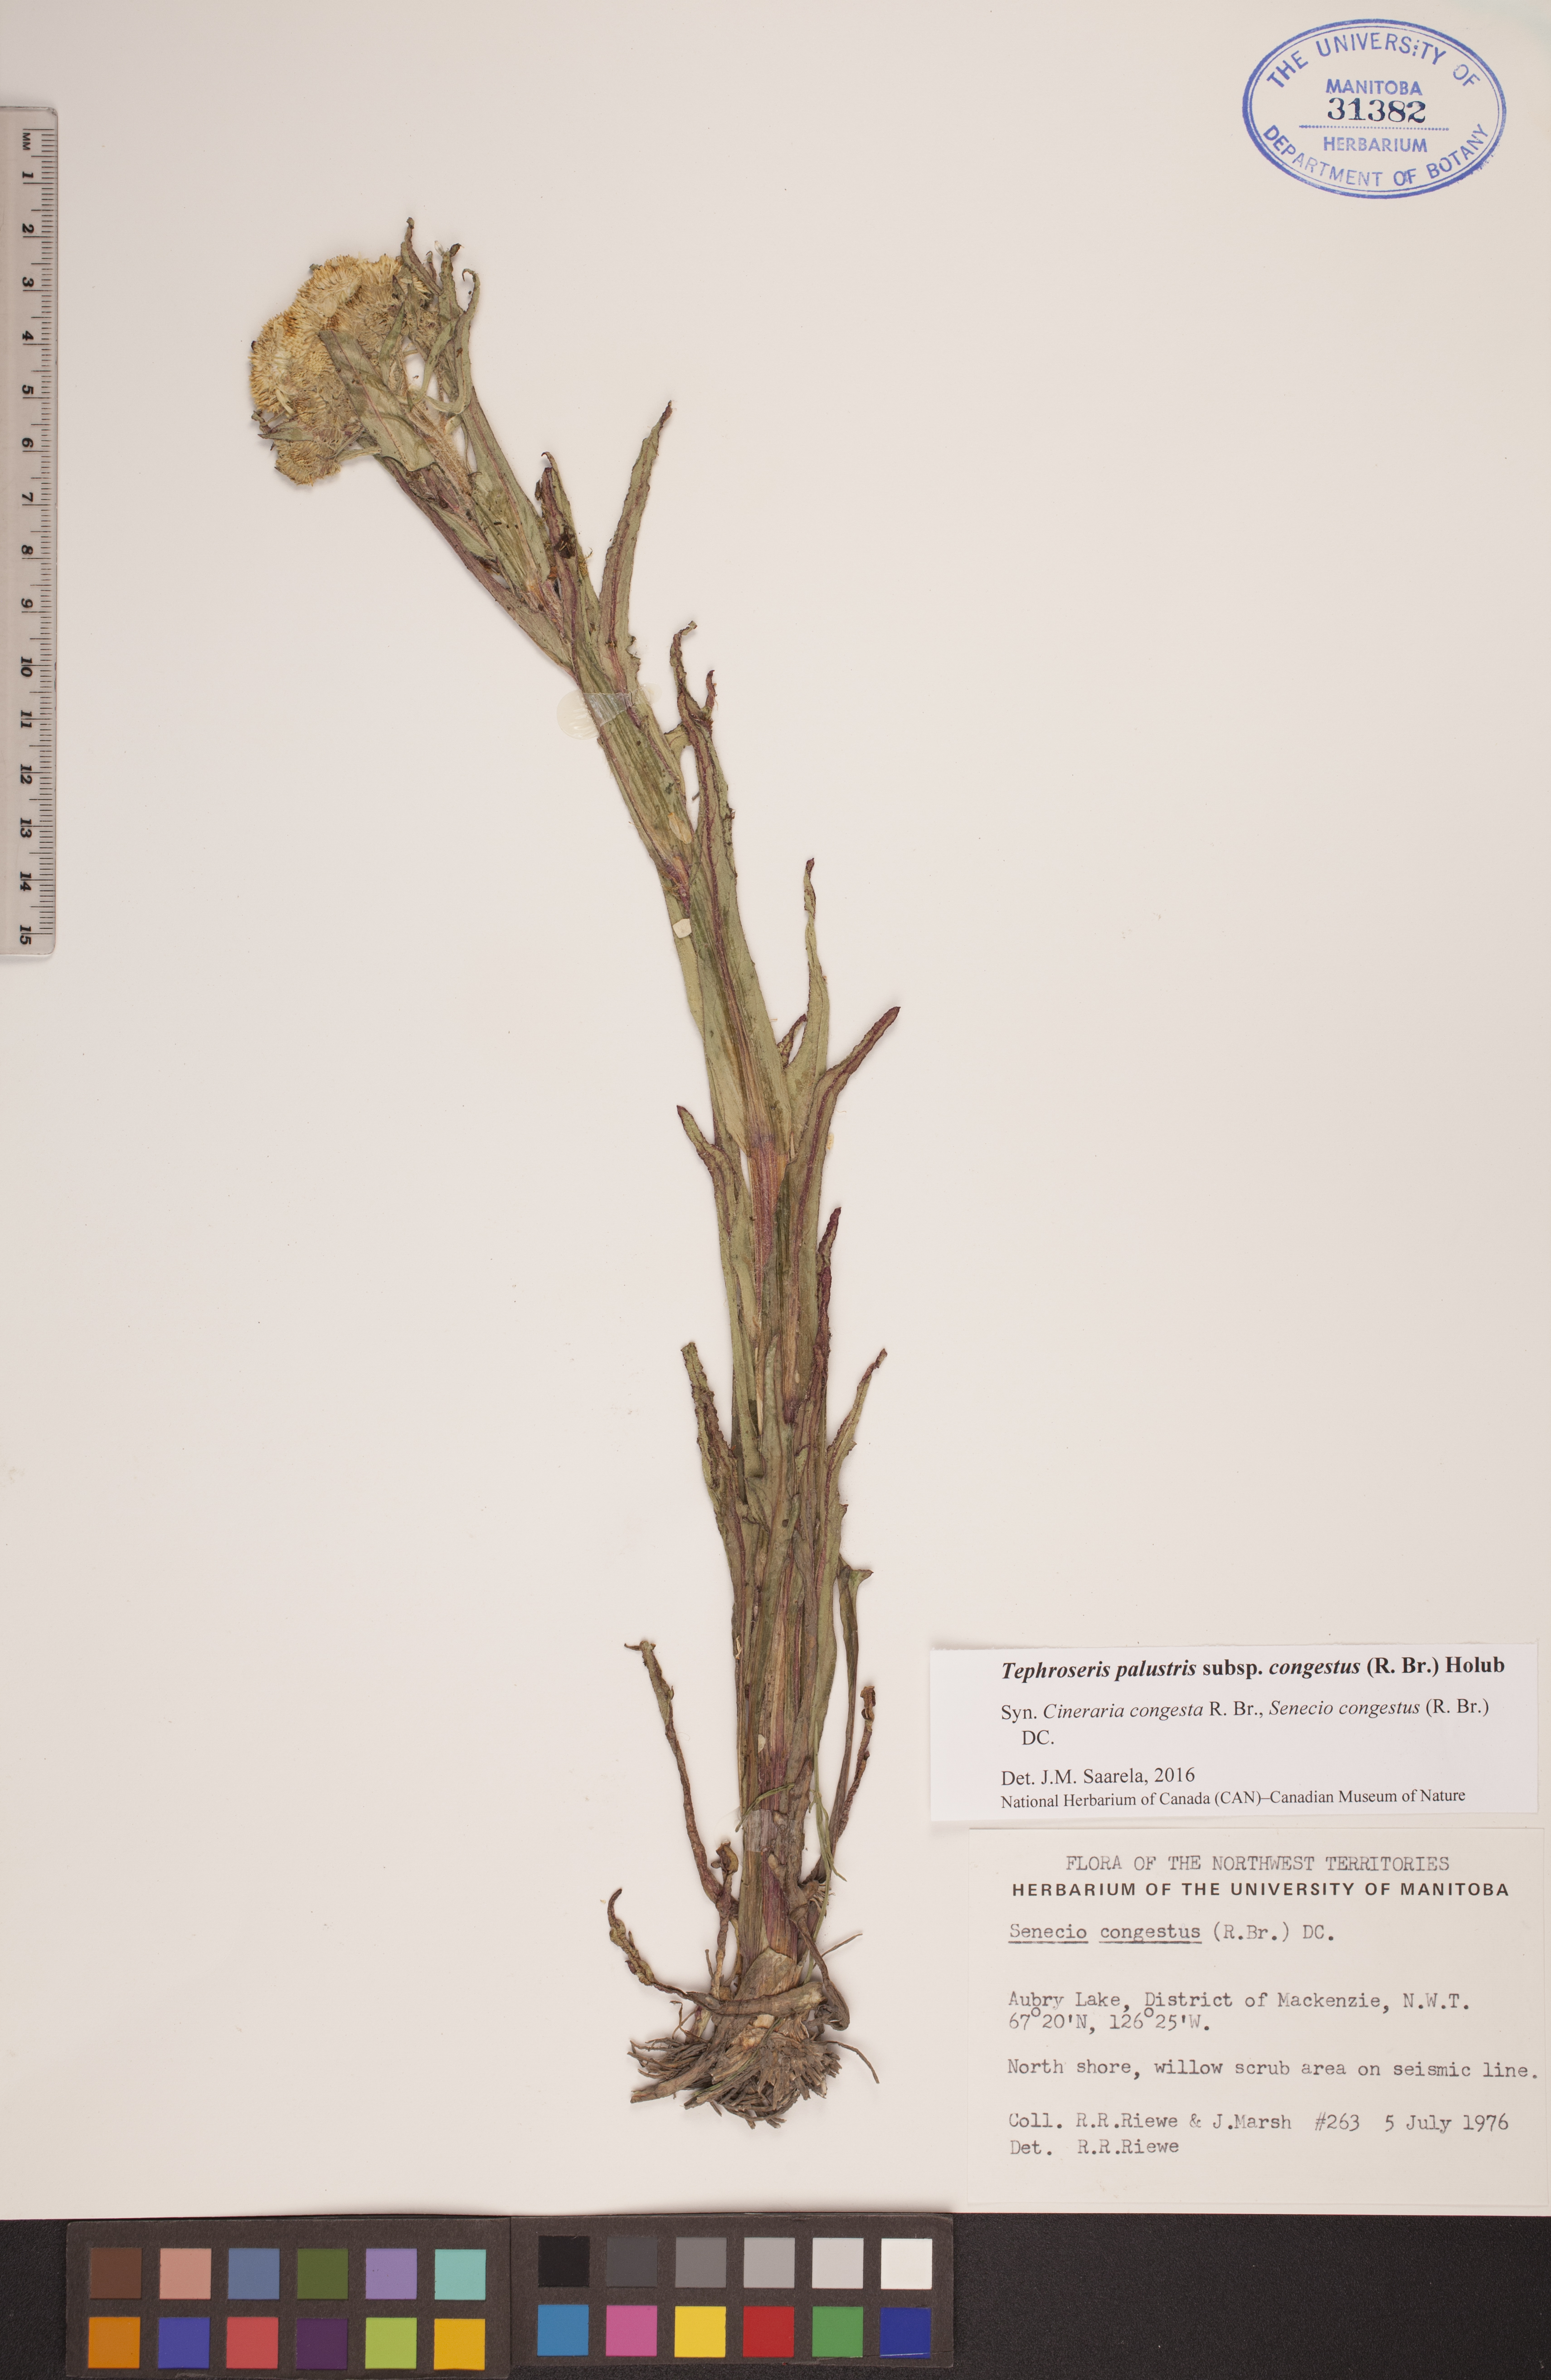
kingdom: Plantae
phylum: Tracheophyta
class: Magnoliopsida
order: Asterales
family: Asteraceae
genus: Tephroseris
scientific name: Tephroseris palustris
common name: Marsh fleawort
